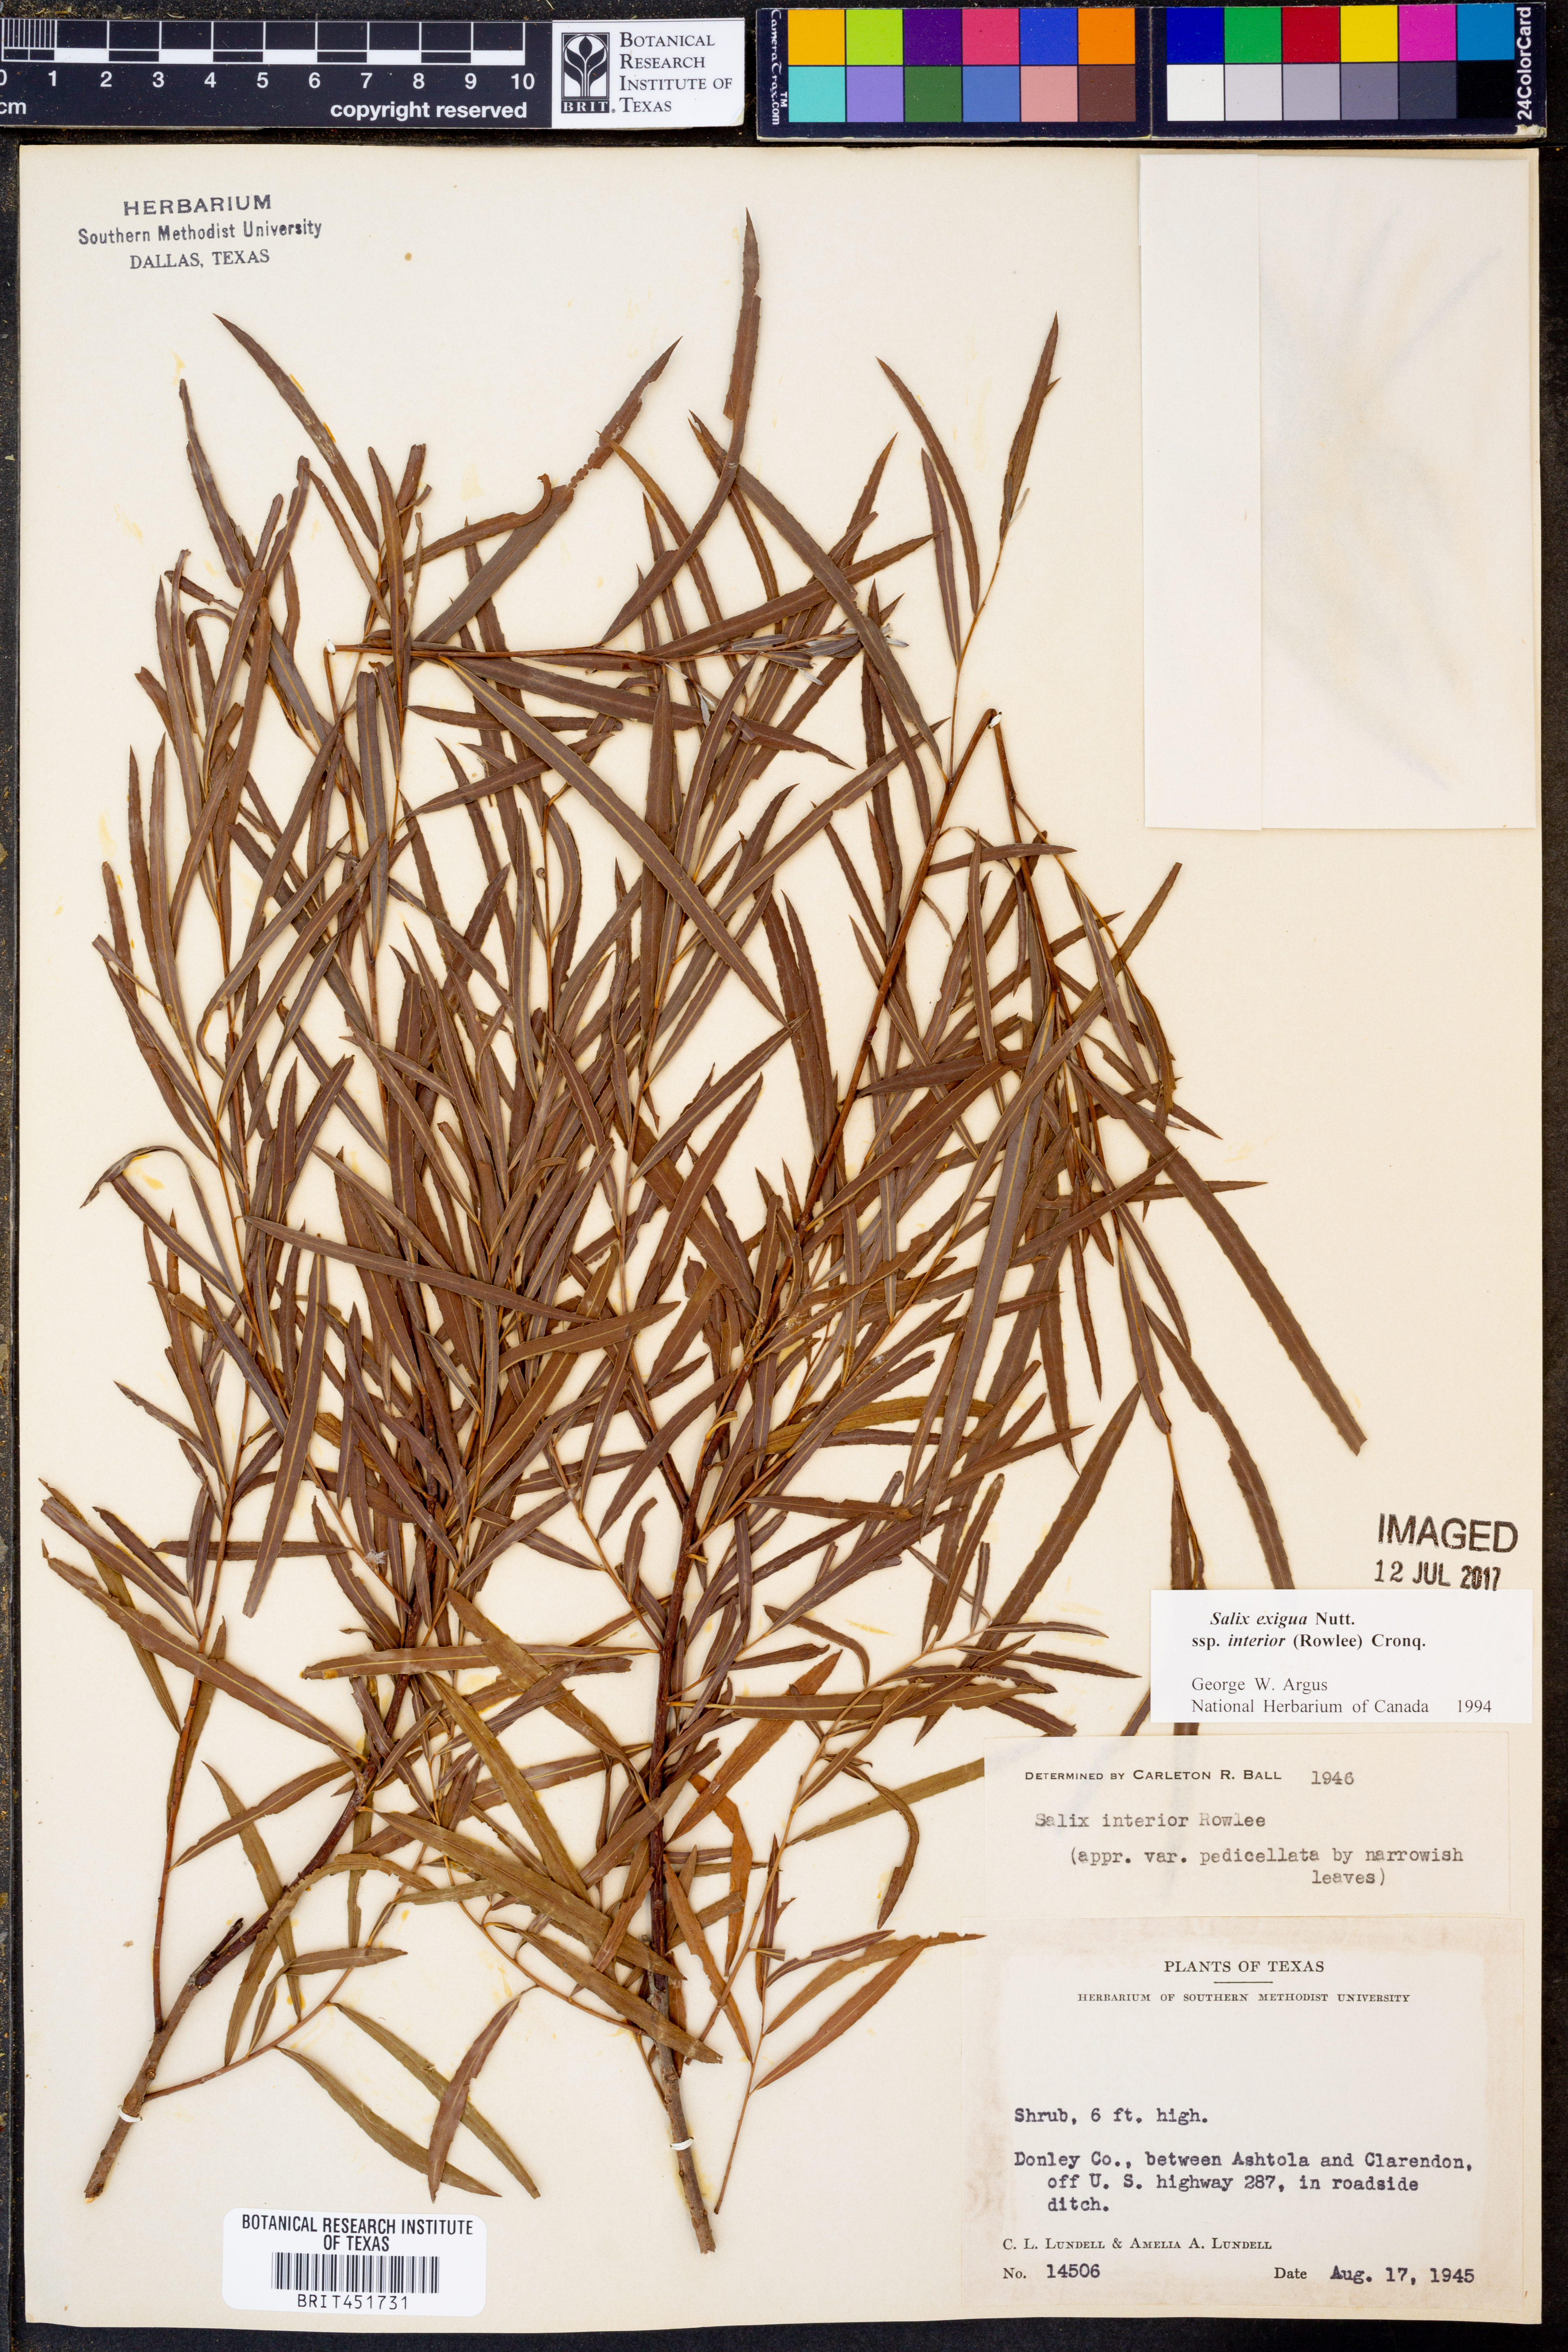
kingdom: Plantae
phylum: Tracheophyta
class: Magnoliopsida
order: Malpighiales
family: Salicaceae
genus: Salix
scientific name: Salix interior
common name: Sandbar willow
